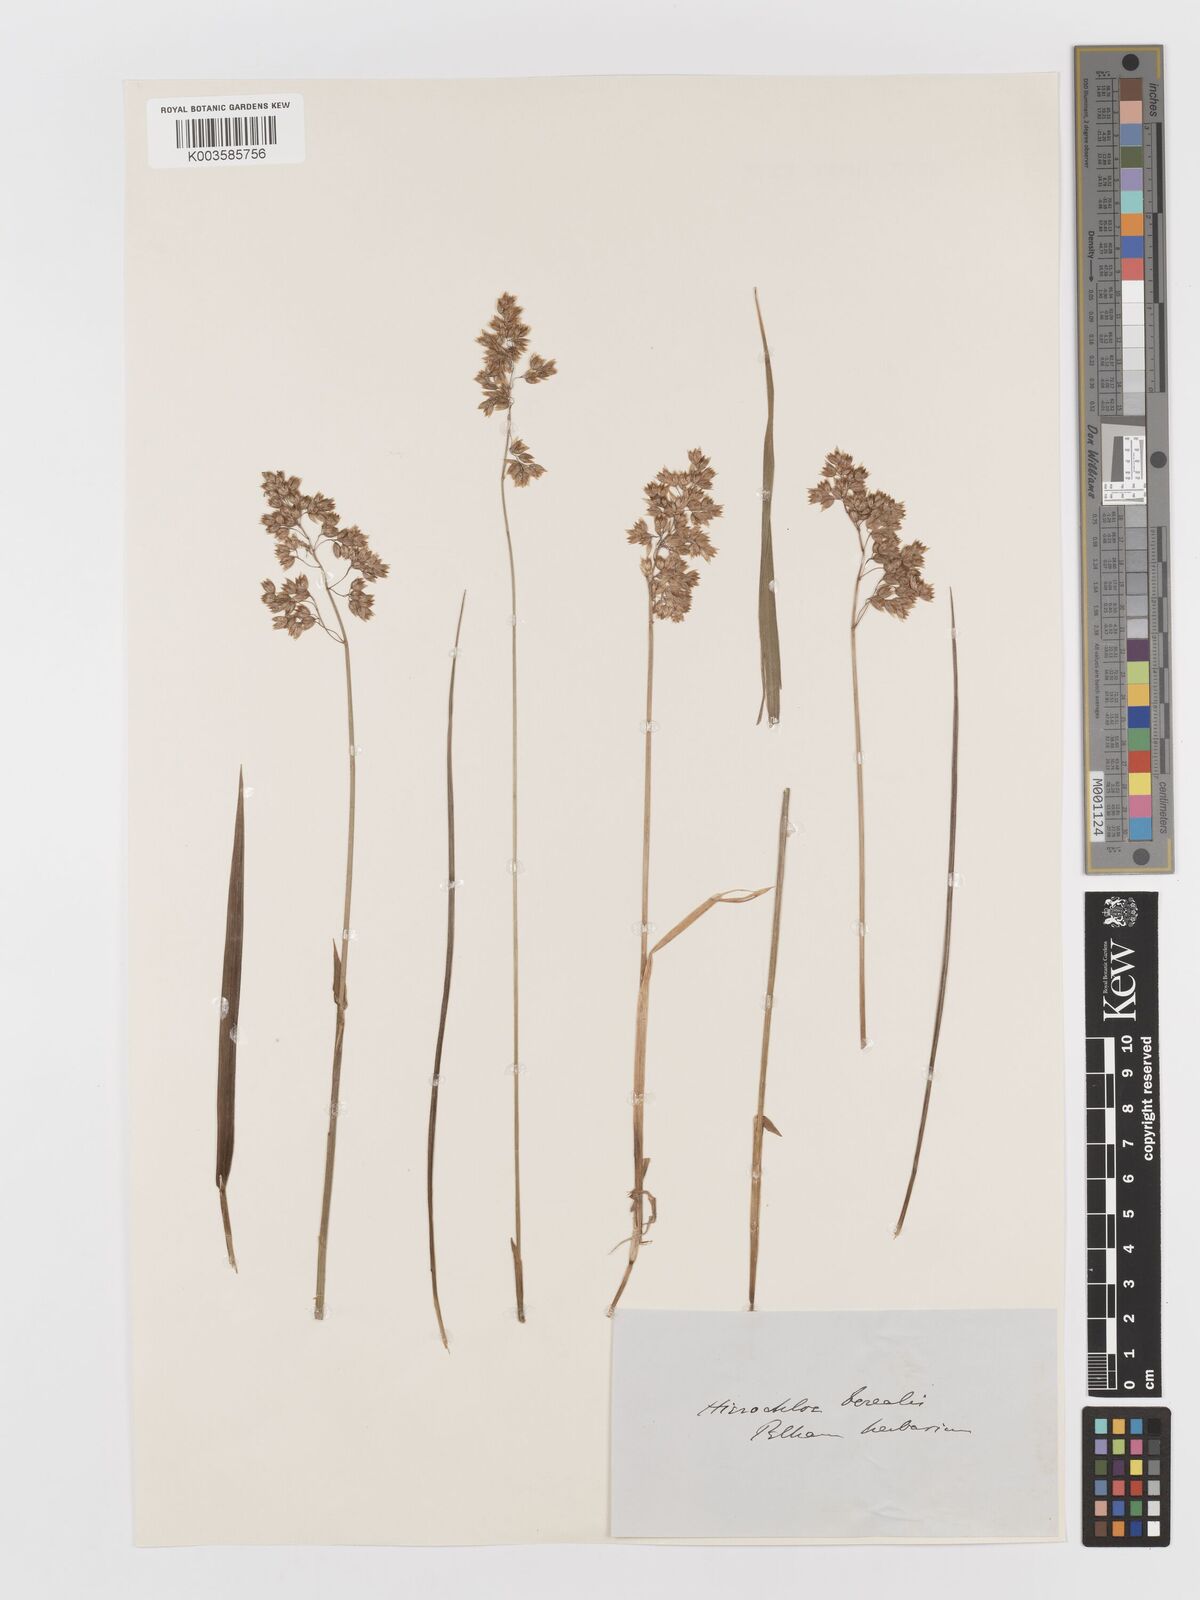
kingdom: Plantae
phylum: Tracheophyta
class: Liliopsida
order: Poales
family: Poaceae
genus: Anthoxanthum
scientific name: Anthoxanthum nitens
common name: Holy grass
